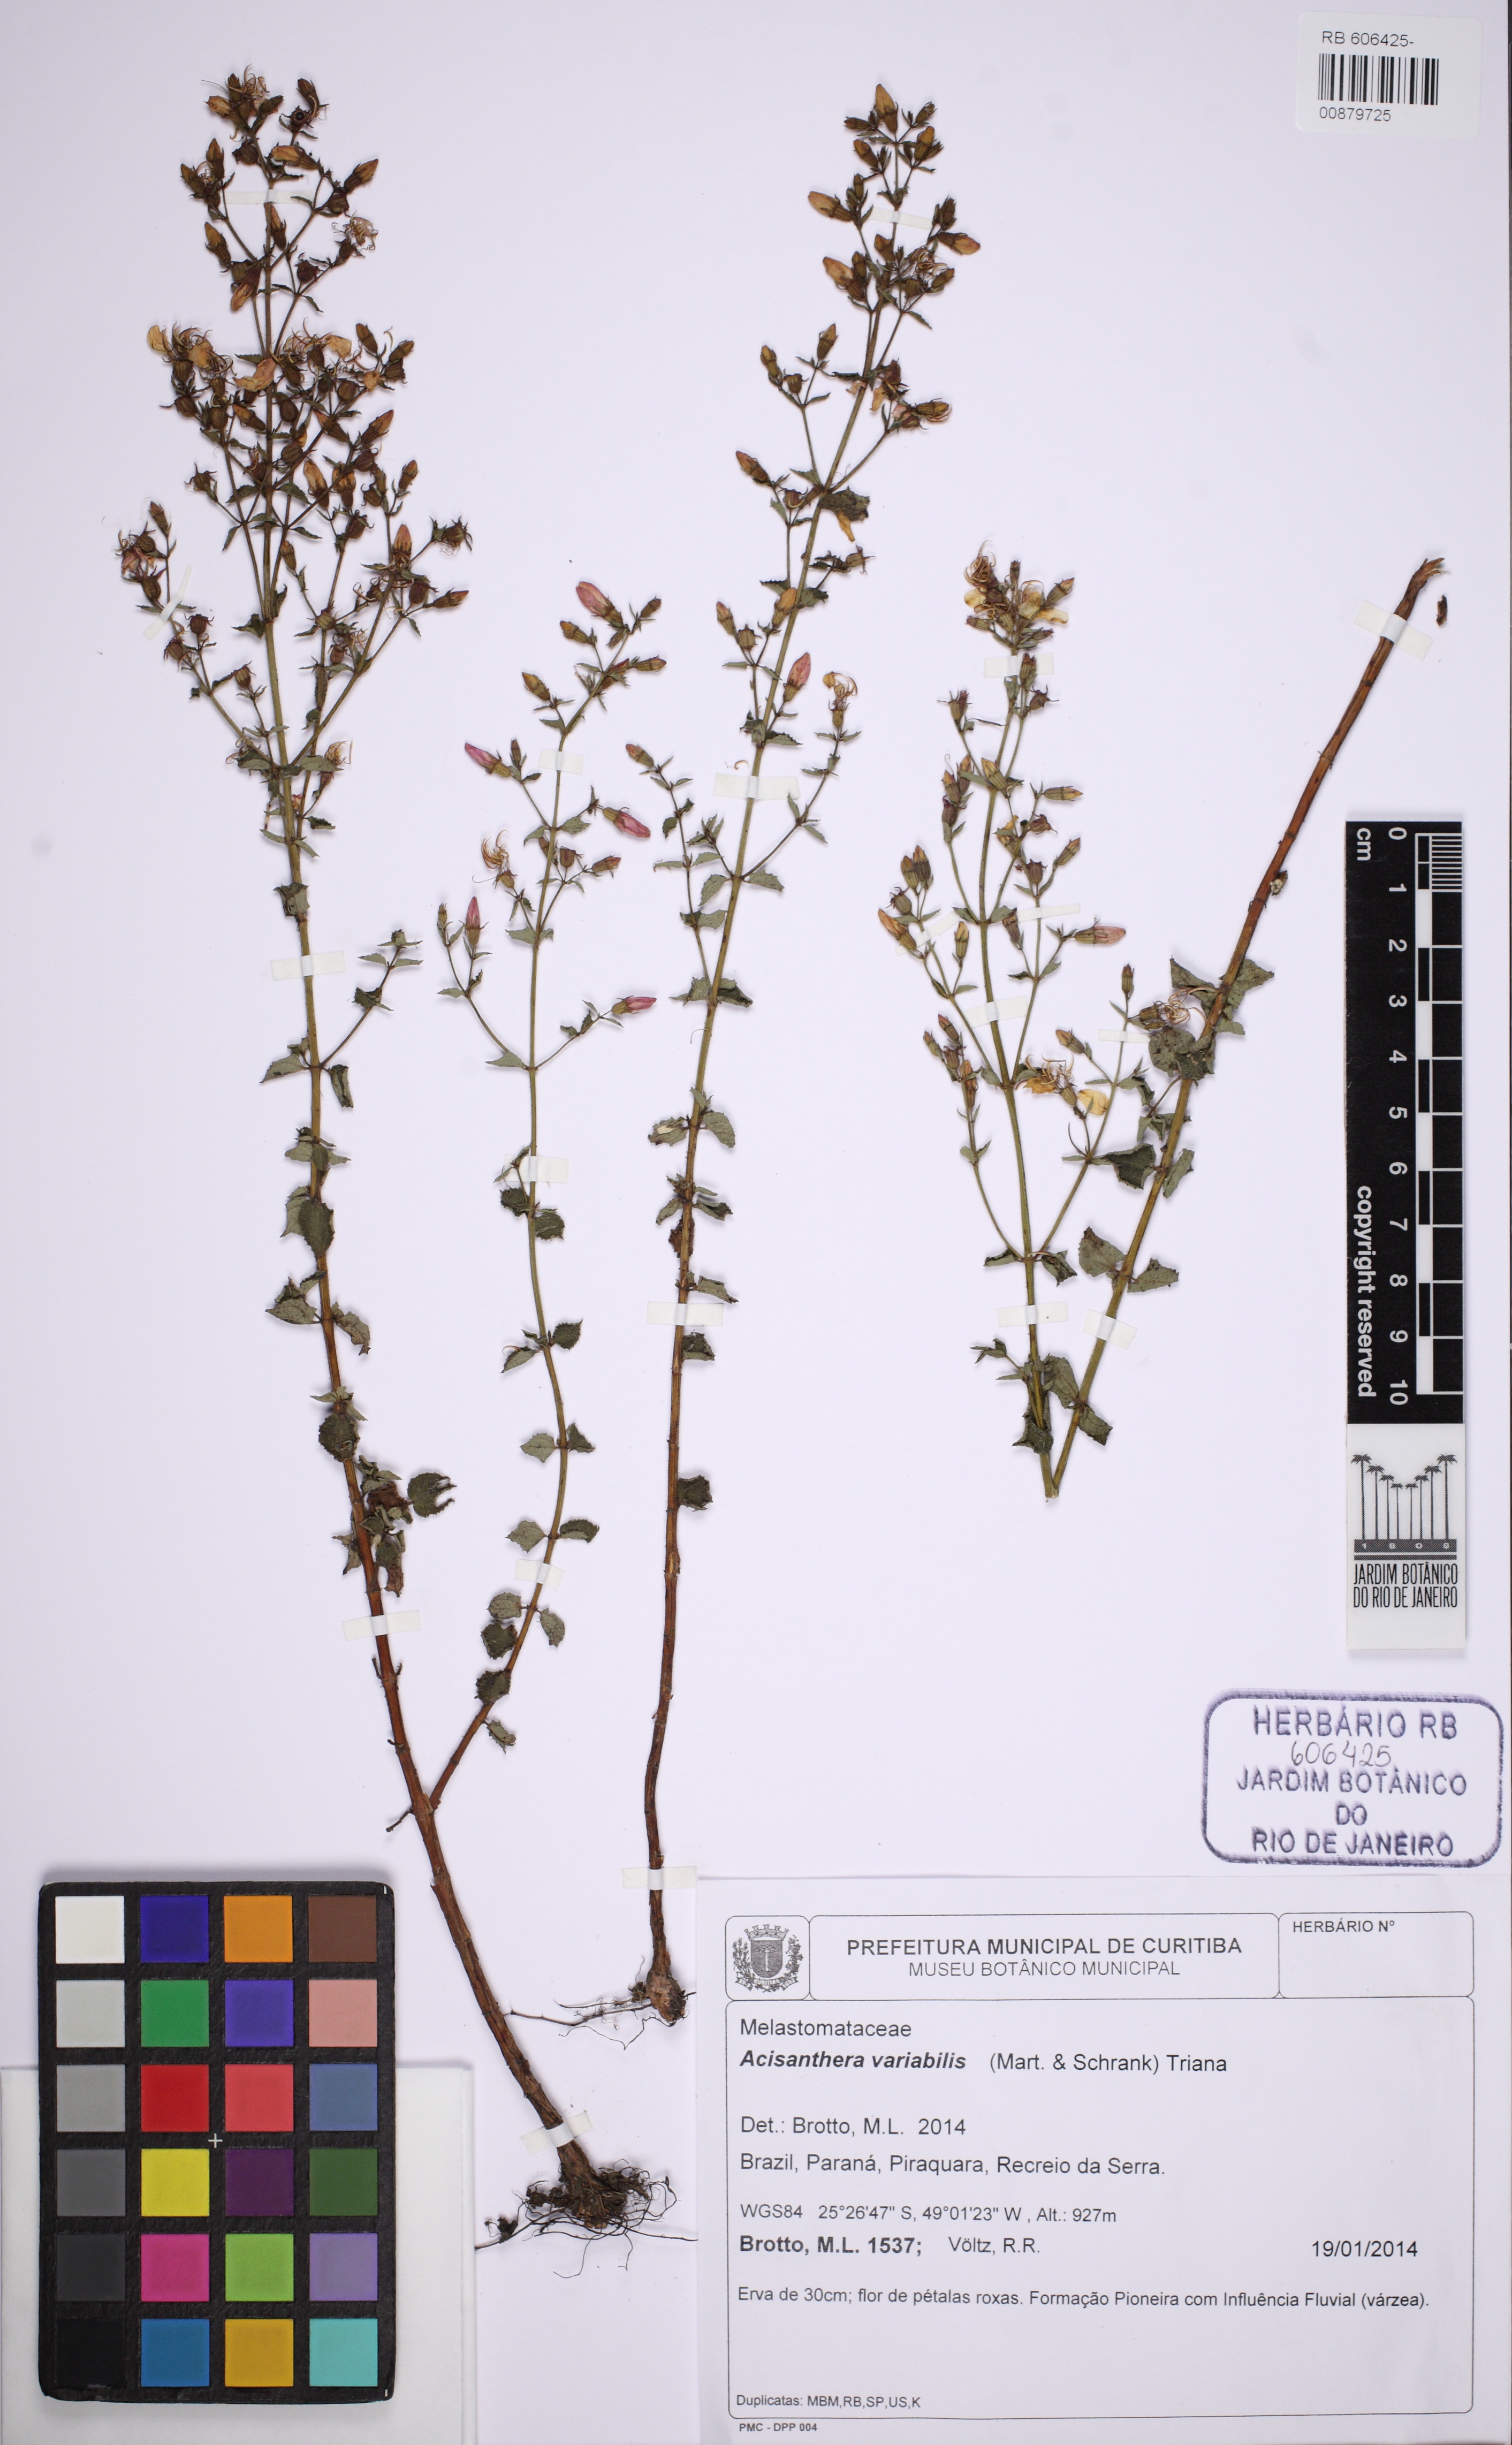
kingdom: Plantae
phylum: Tracheophyta
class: Magnoliopsida
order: Myrtales
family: Melastomataceae
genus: Acisanthera
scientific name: Acisanthera variabilis
